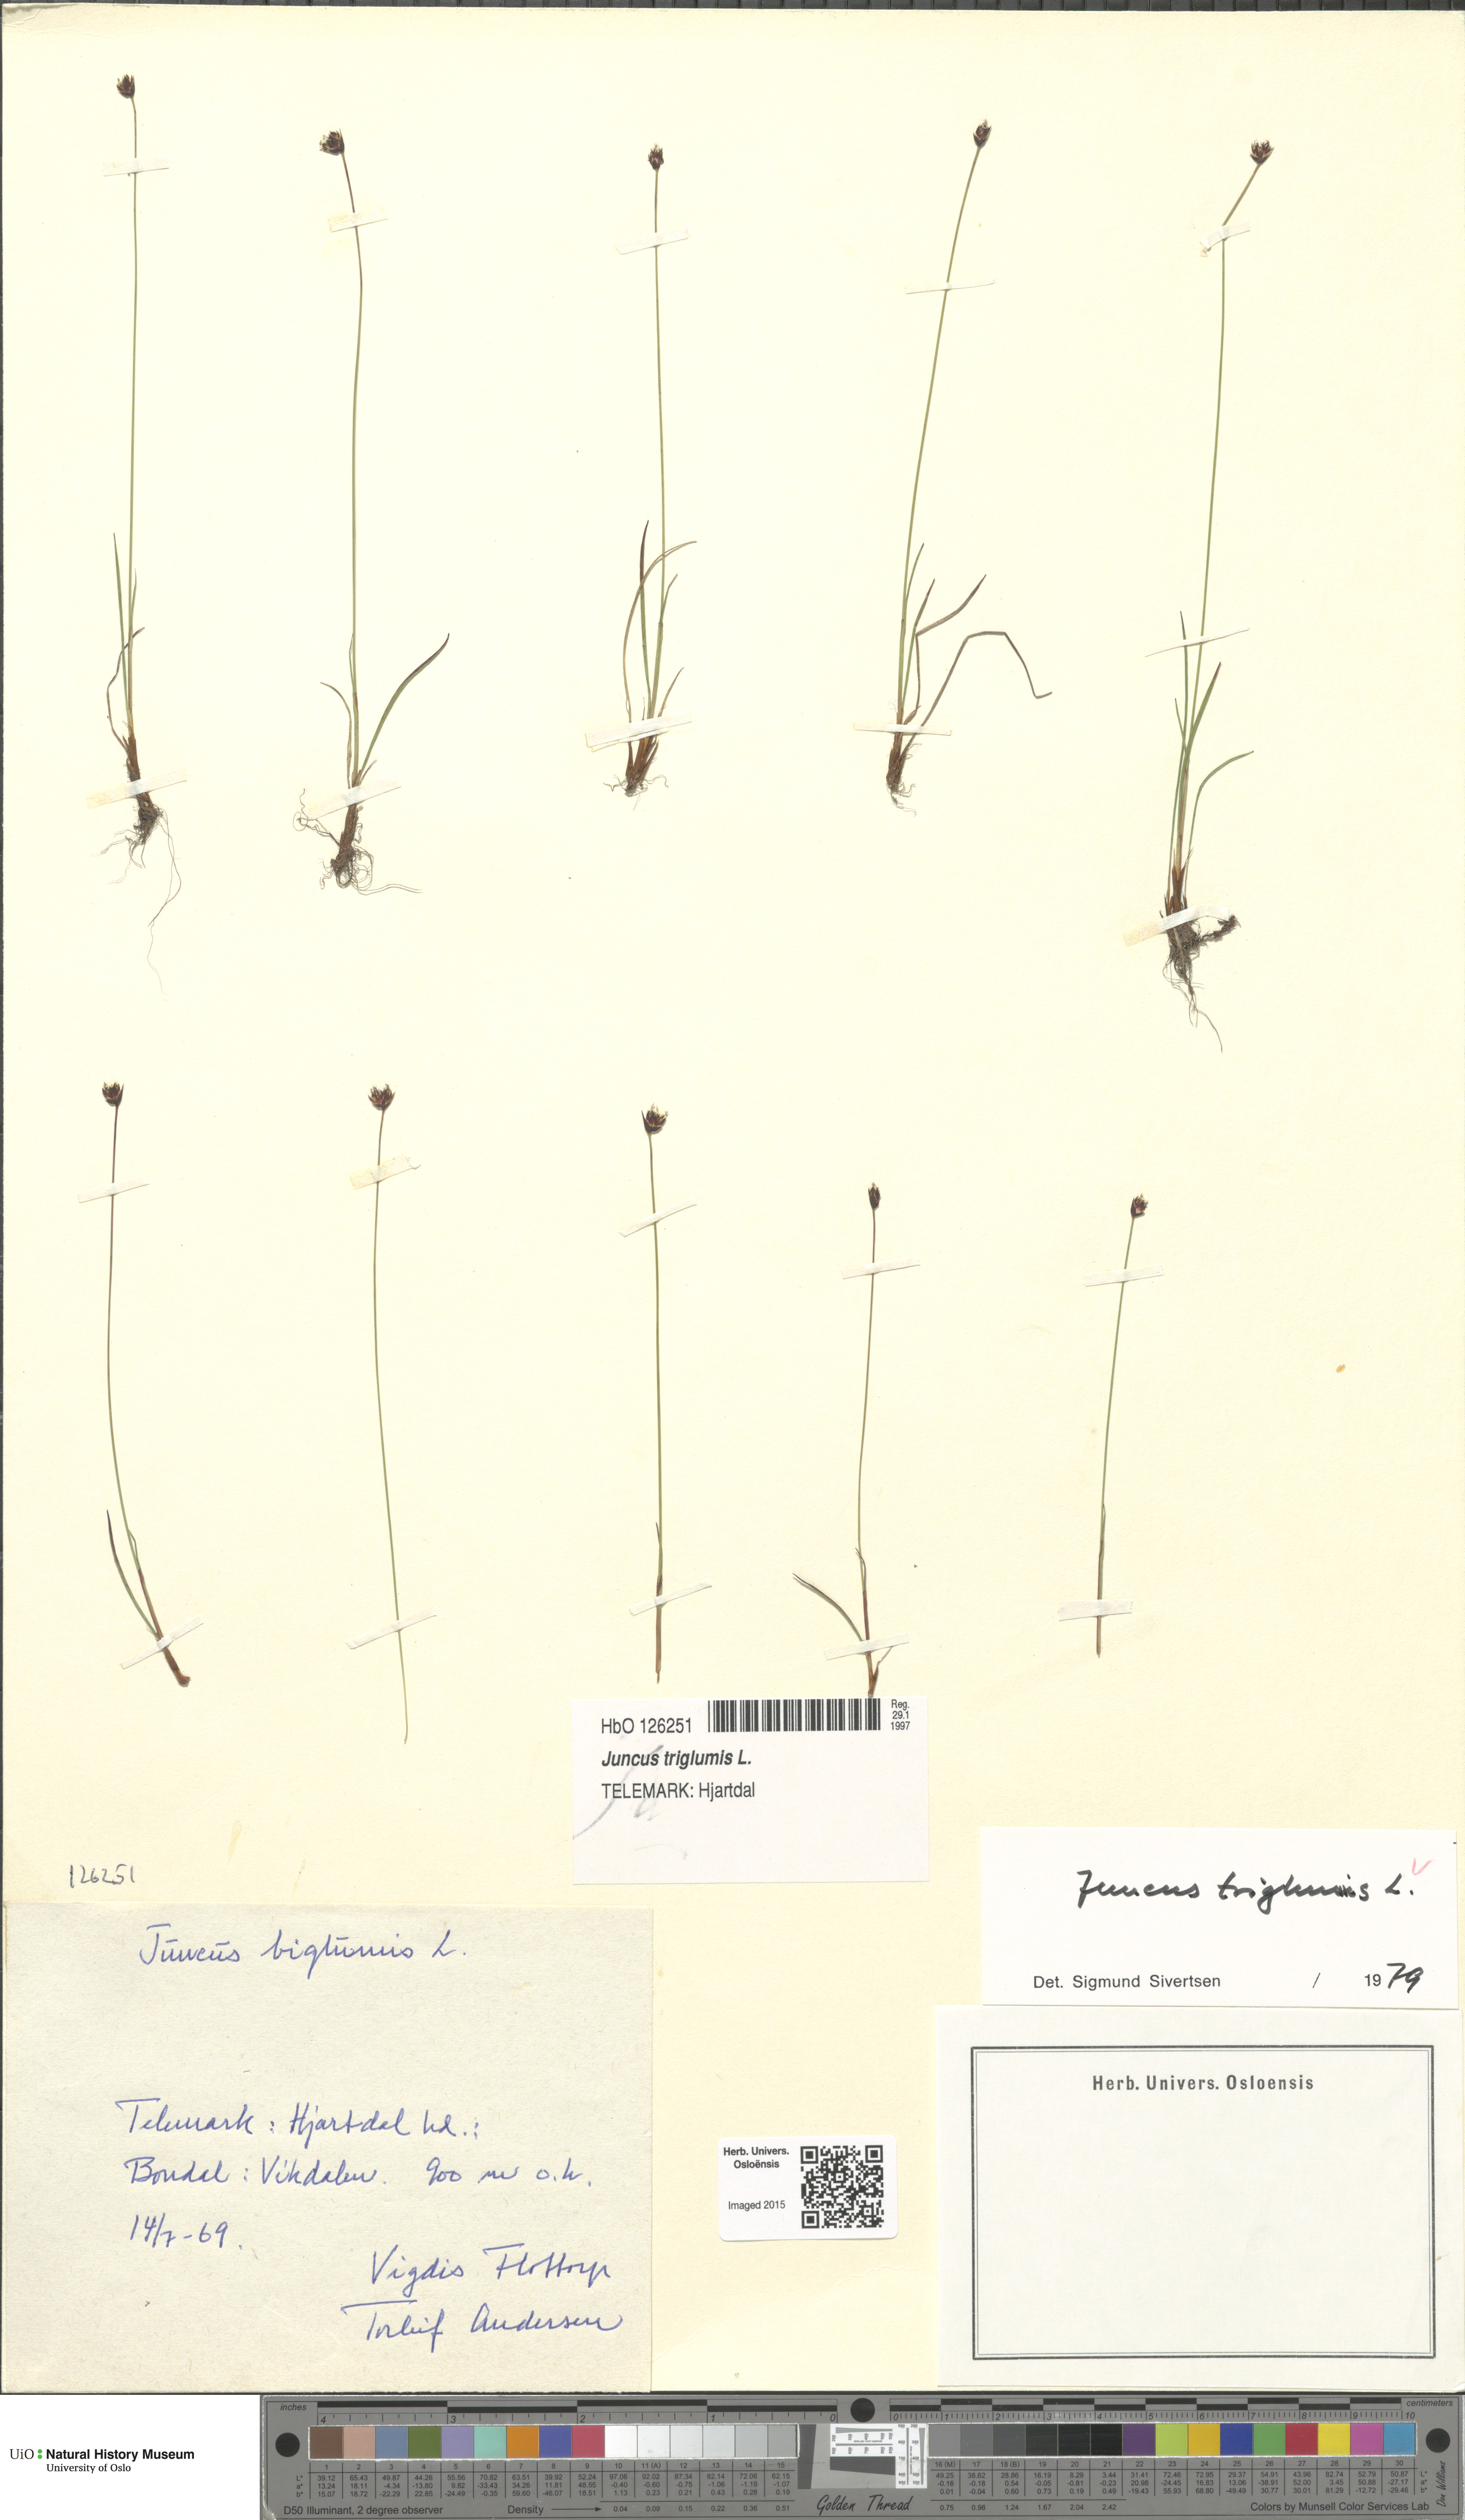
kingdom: Plantae
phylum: Tracheophyta
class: Liliopsida
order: Poales
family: Juncaceae
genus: Juncus
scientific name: Juncus triglumis
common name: Three-flowered rush
